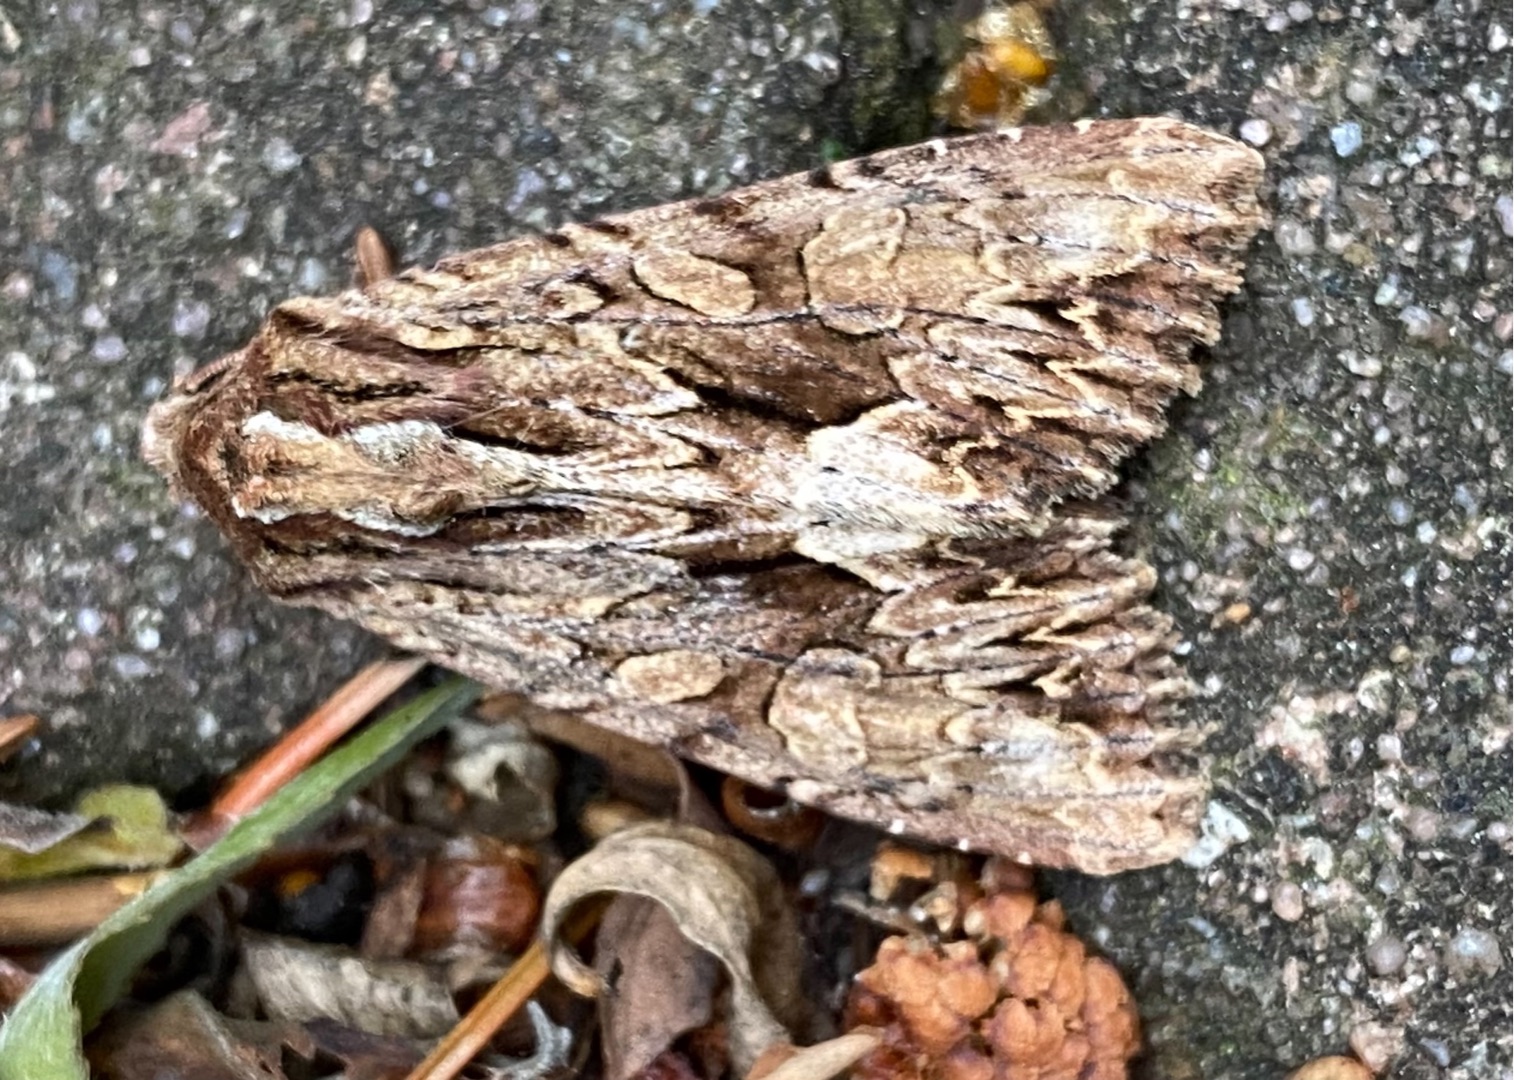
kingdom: Animalia
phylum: Arthropoda
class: Insecta
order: Lepidoptera
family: Noctuidae
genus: Apamea
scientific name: Apamea monoglypha
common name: Jordugle
